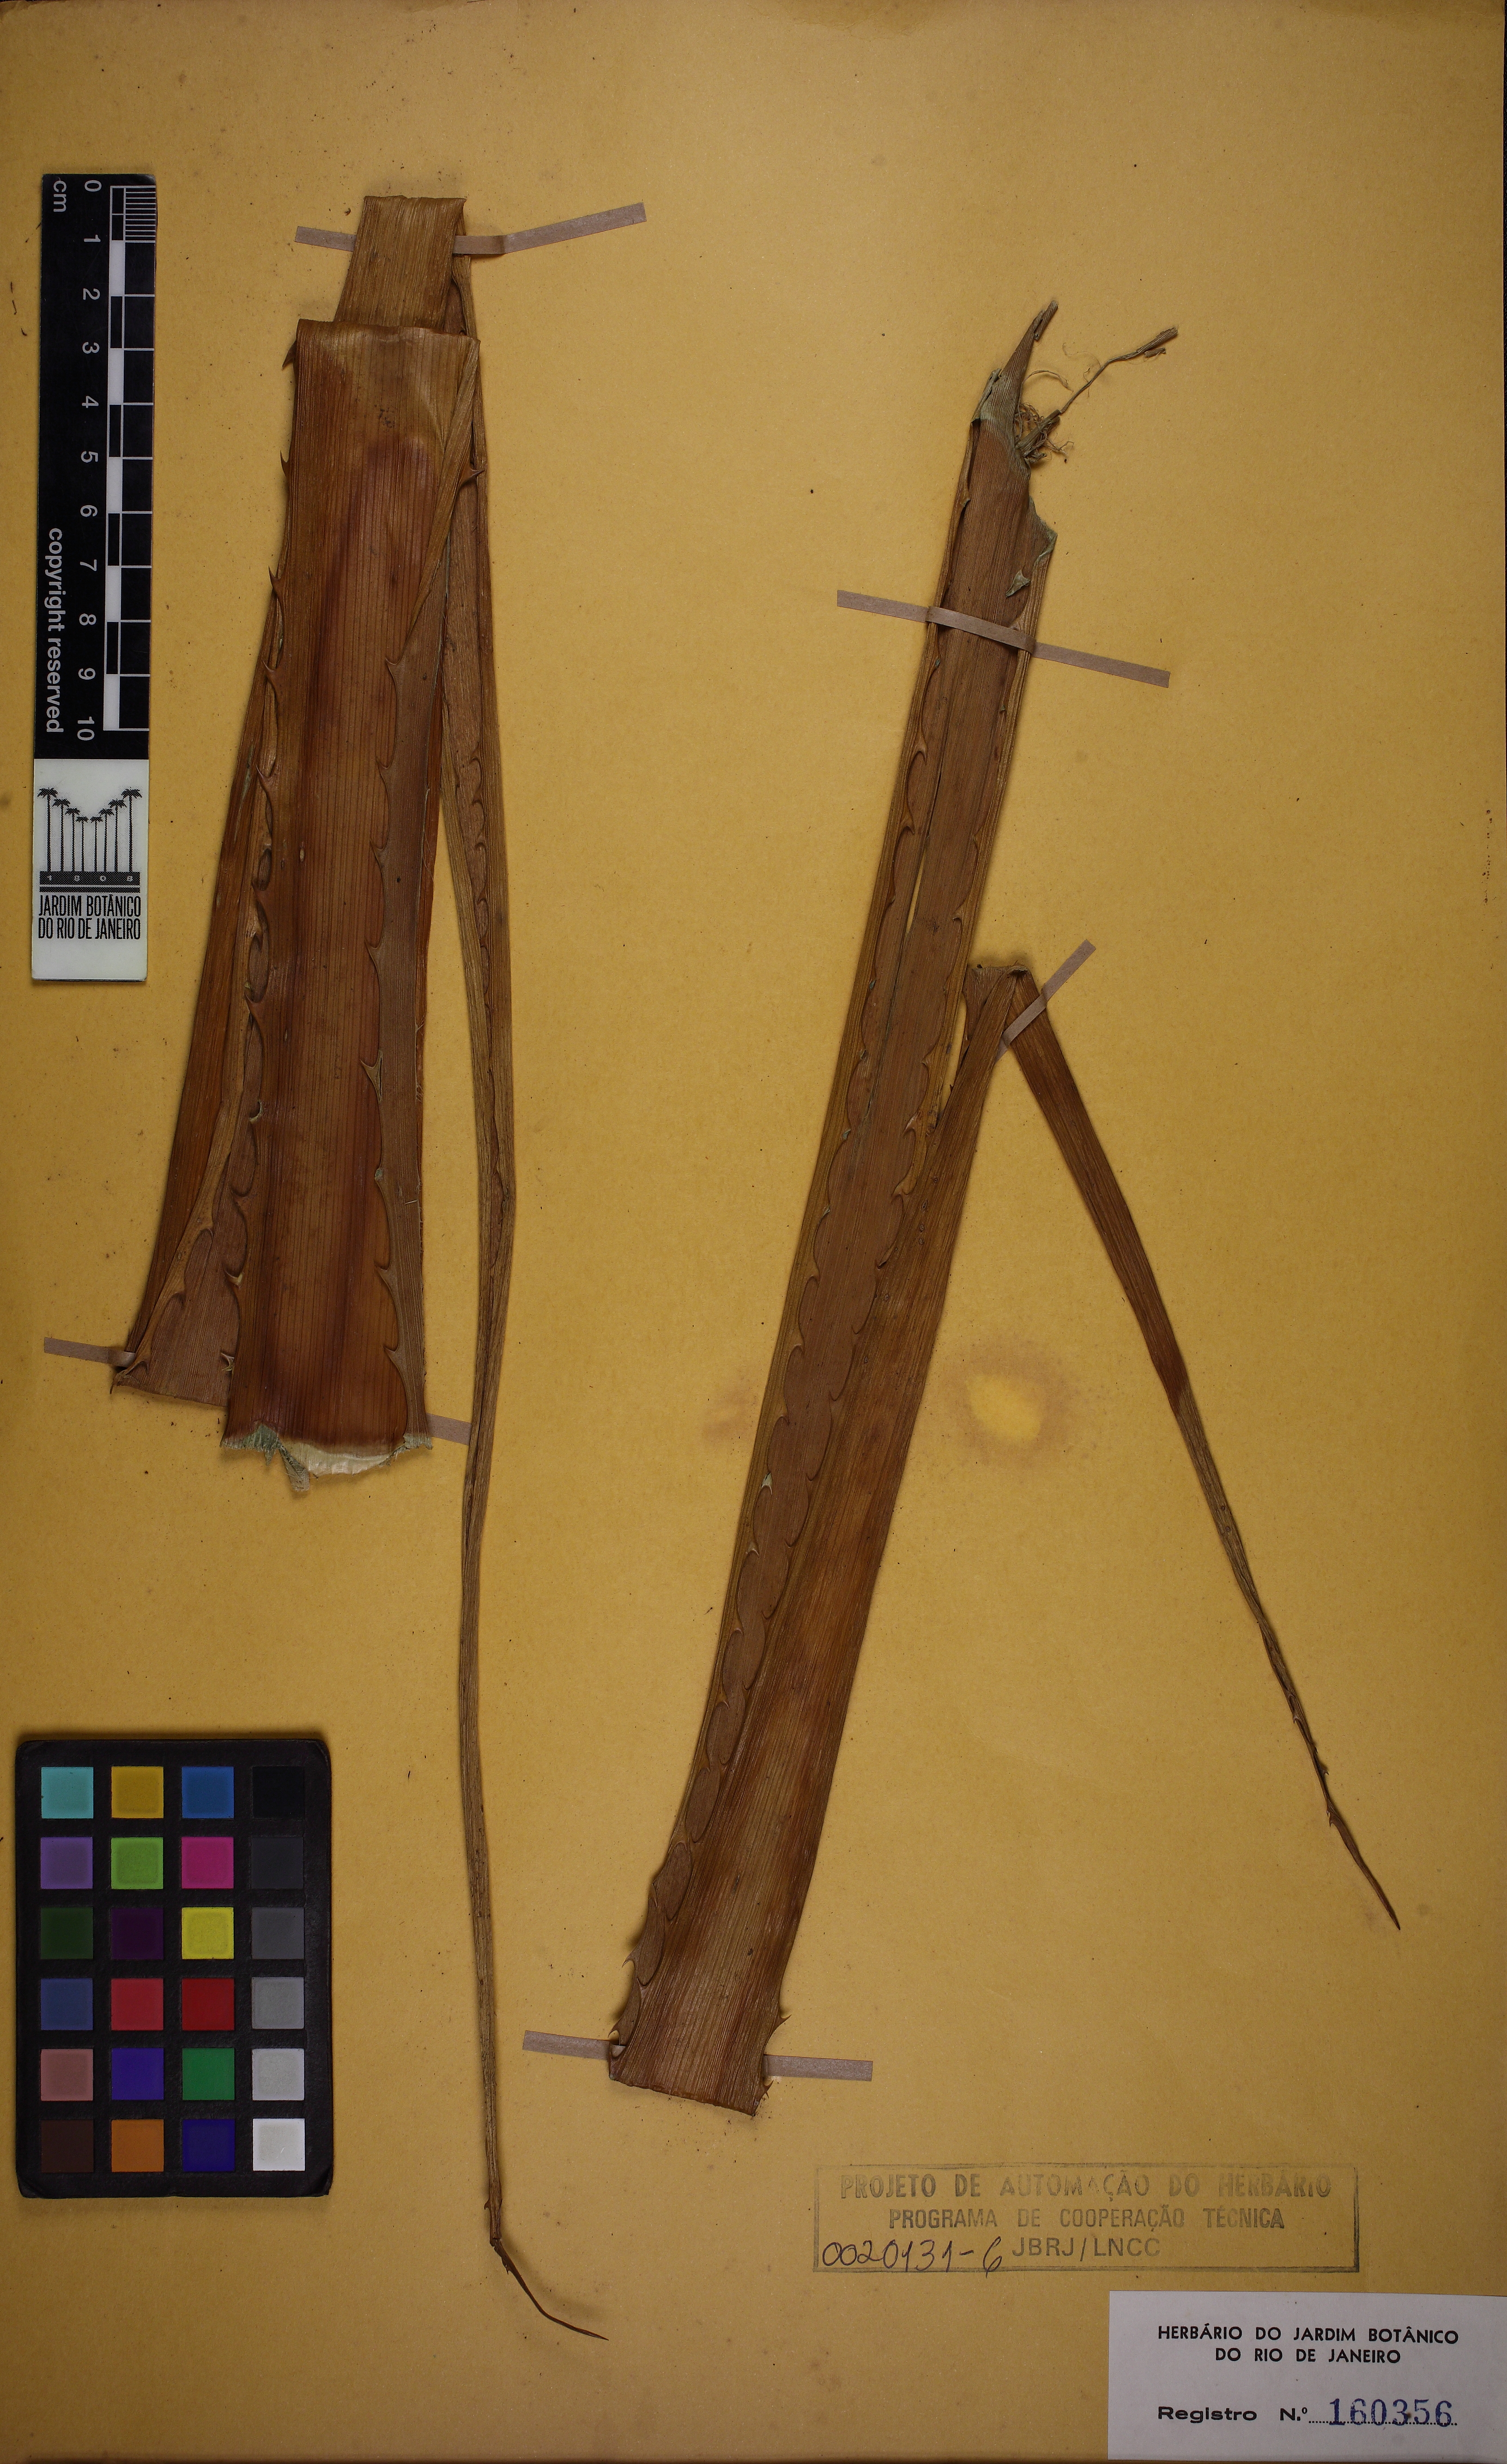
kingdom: Plantae
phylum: Tracheophyta
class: Liliopsida
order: Poales
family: Bromeliaceae
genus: Ananas
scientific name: Ananas comosus
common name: Pineapple
